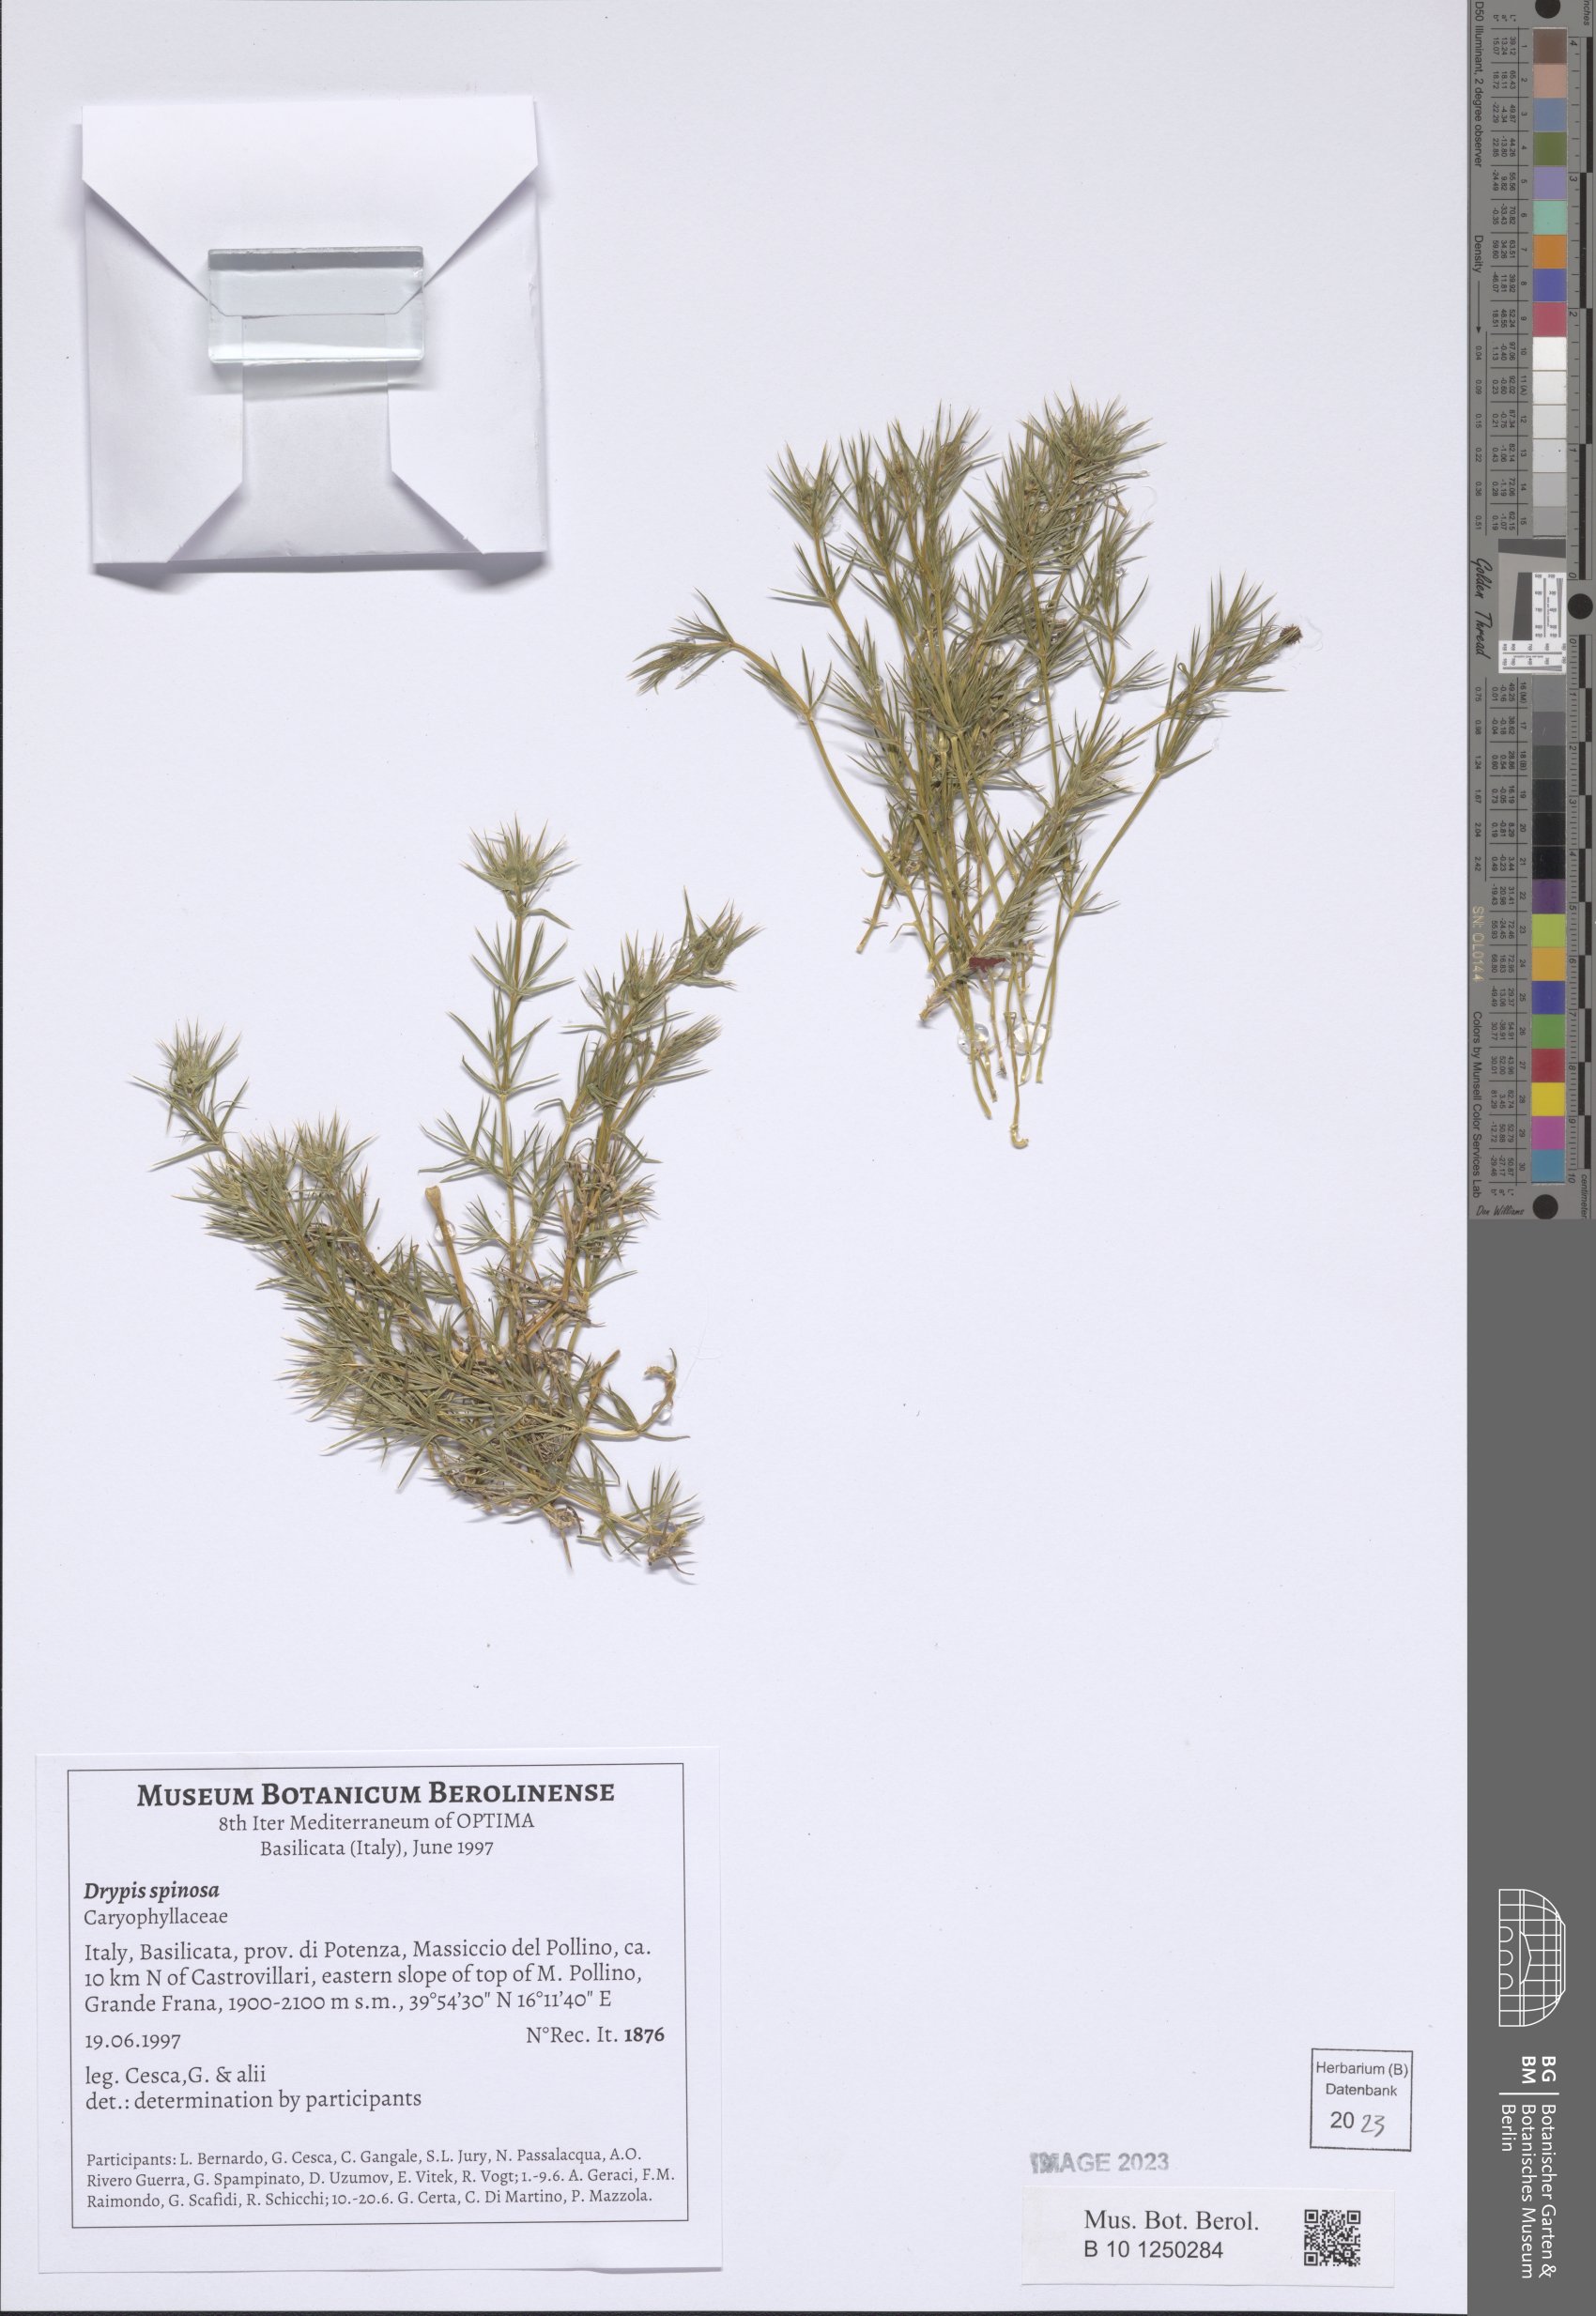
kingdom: Plantae
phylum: Tracheophyta
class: Magnoliopsida
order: Caryophyllales
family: Caryophyllaceae
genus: Drypis
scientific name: Drypis spinosa
